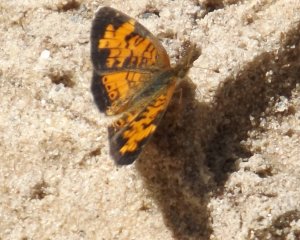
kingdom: Animalia
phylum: Arthropoda
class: Insecta
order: Lepidoptera
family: Nymphalidae
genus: Phyciodes
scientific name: Phyciodes tharos
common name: Northern Crescent
